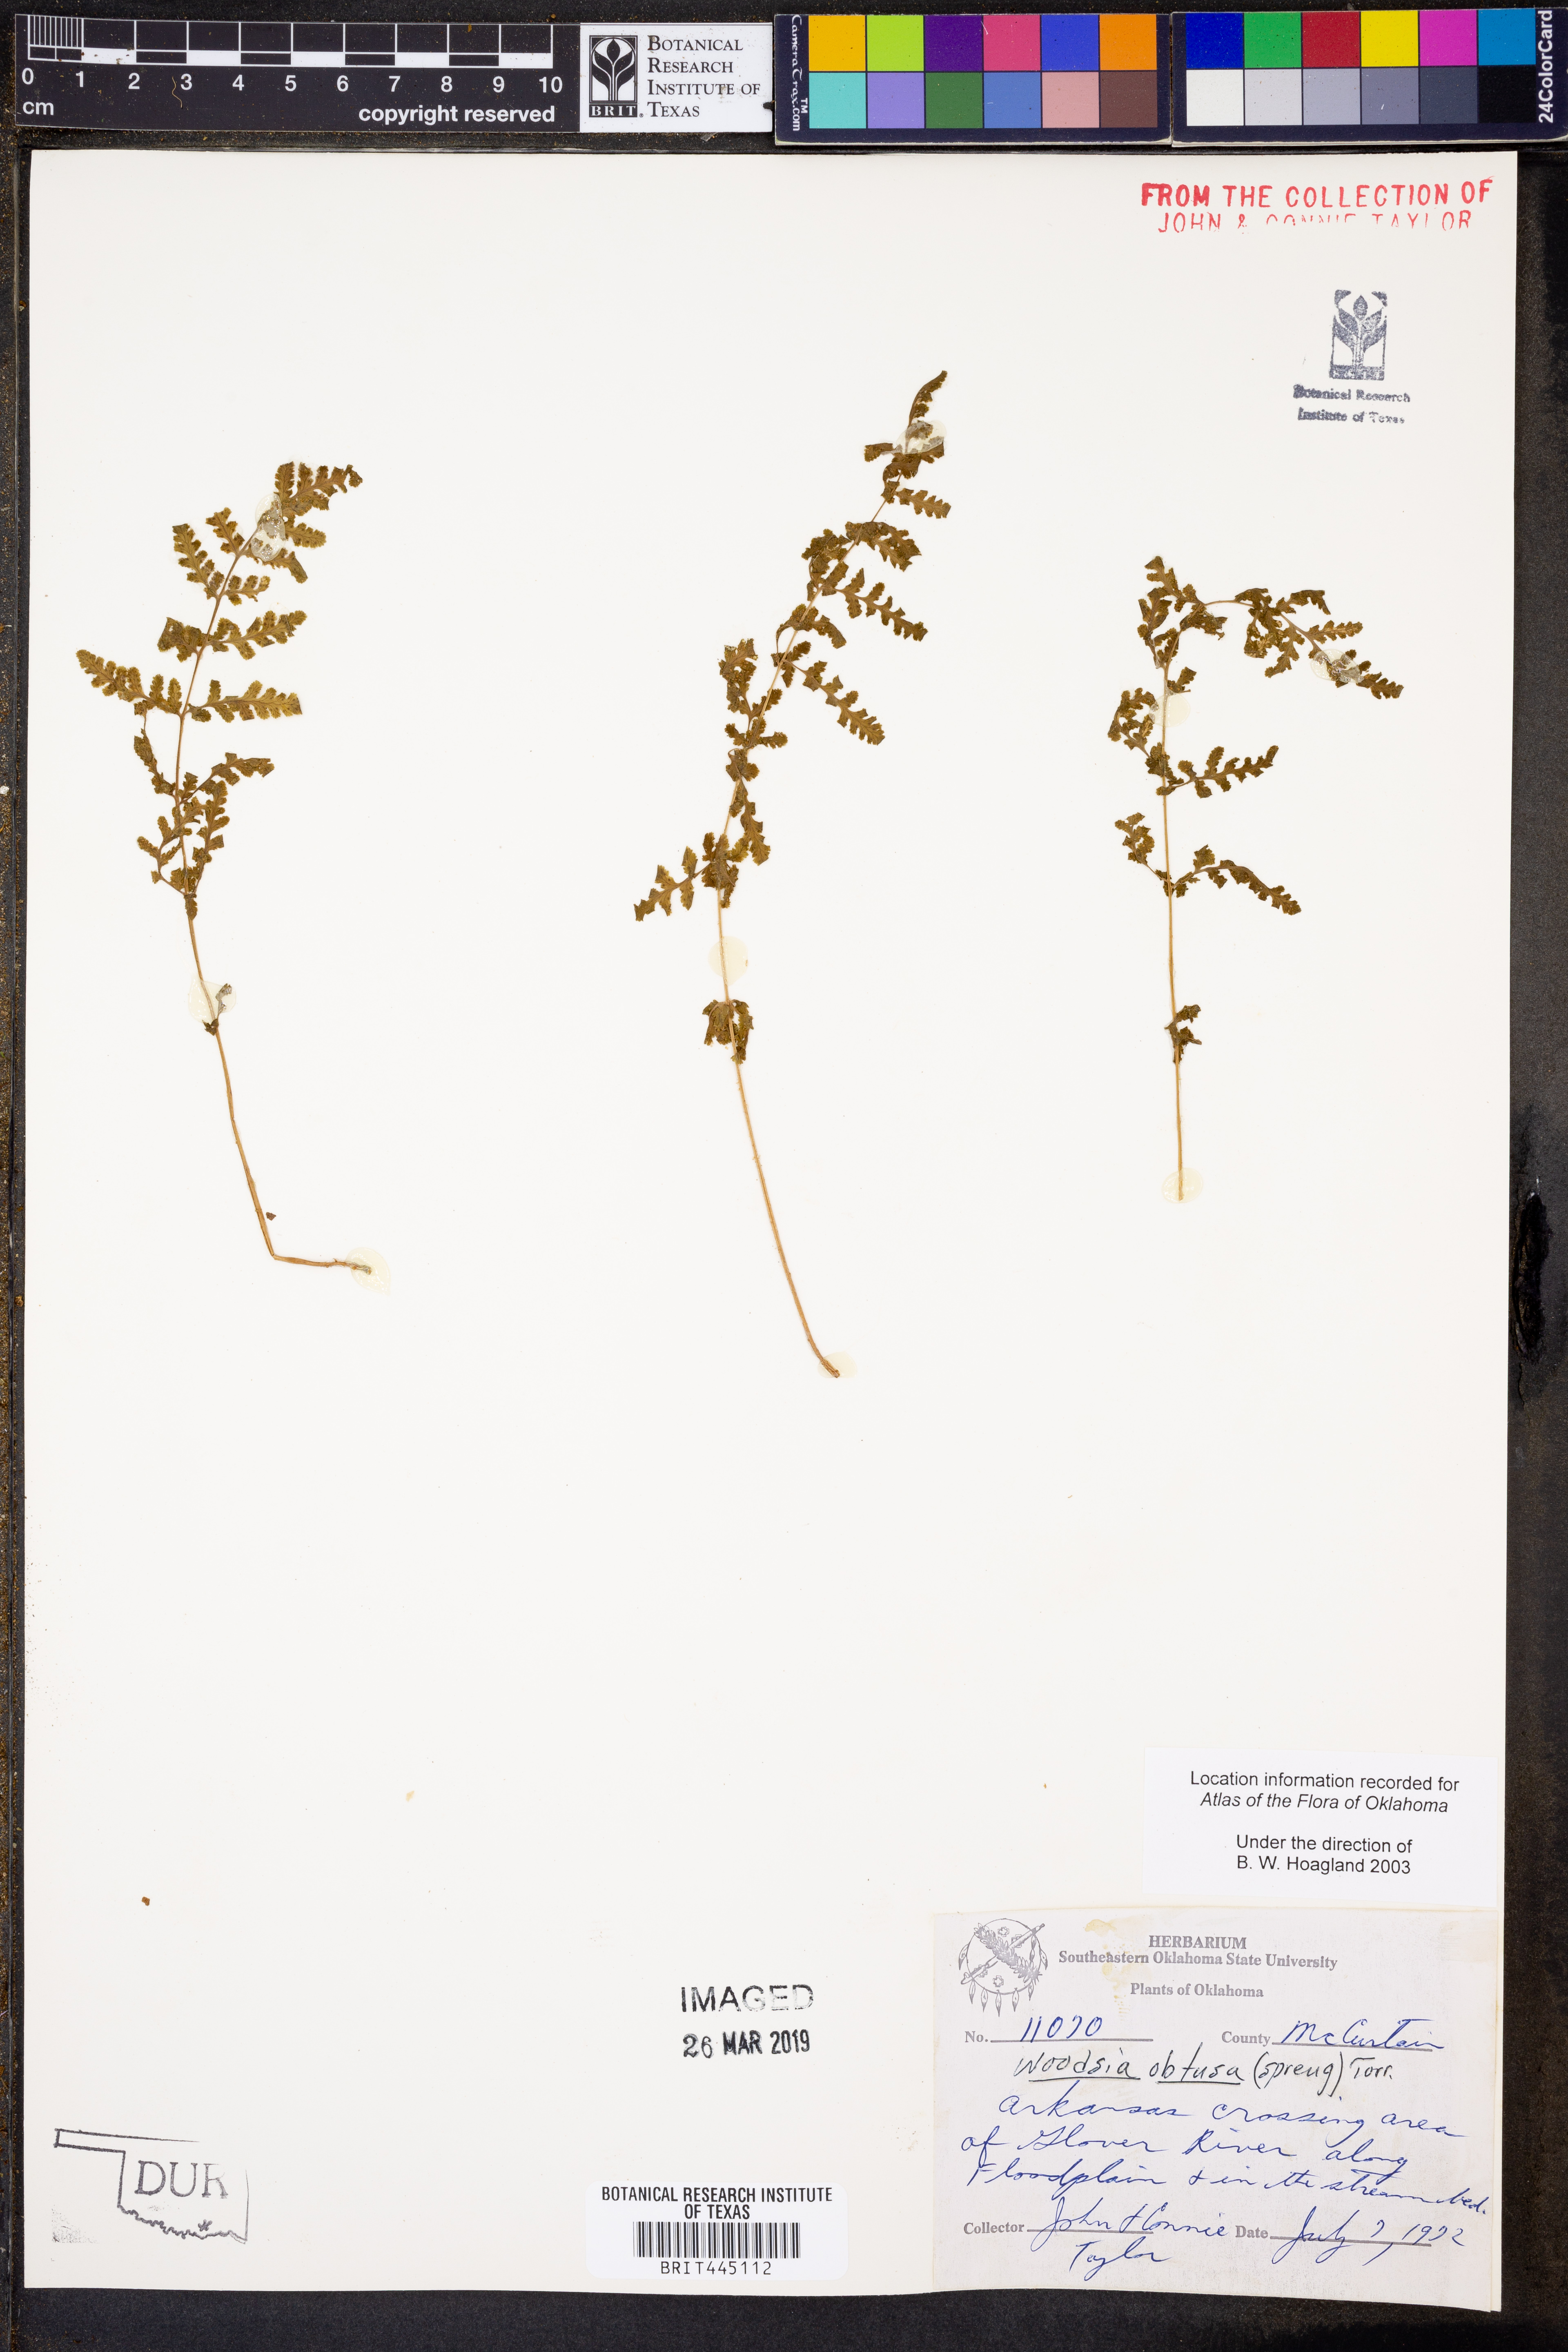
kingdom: Plantae
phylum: Tracheophyta
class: Polypodiopsida
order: Polypodiales
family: Woodsiaceae
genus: Physematium
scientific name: Physematium obtusum
